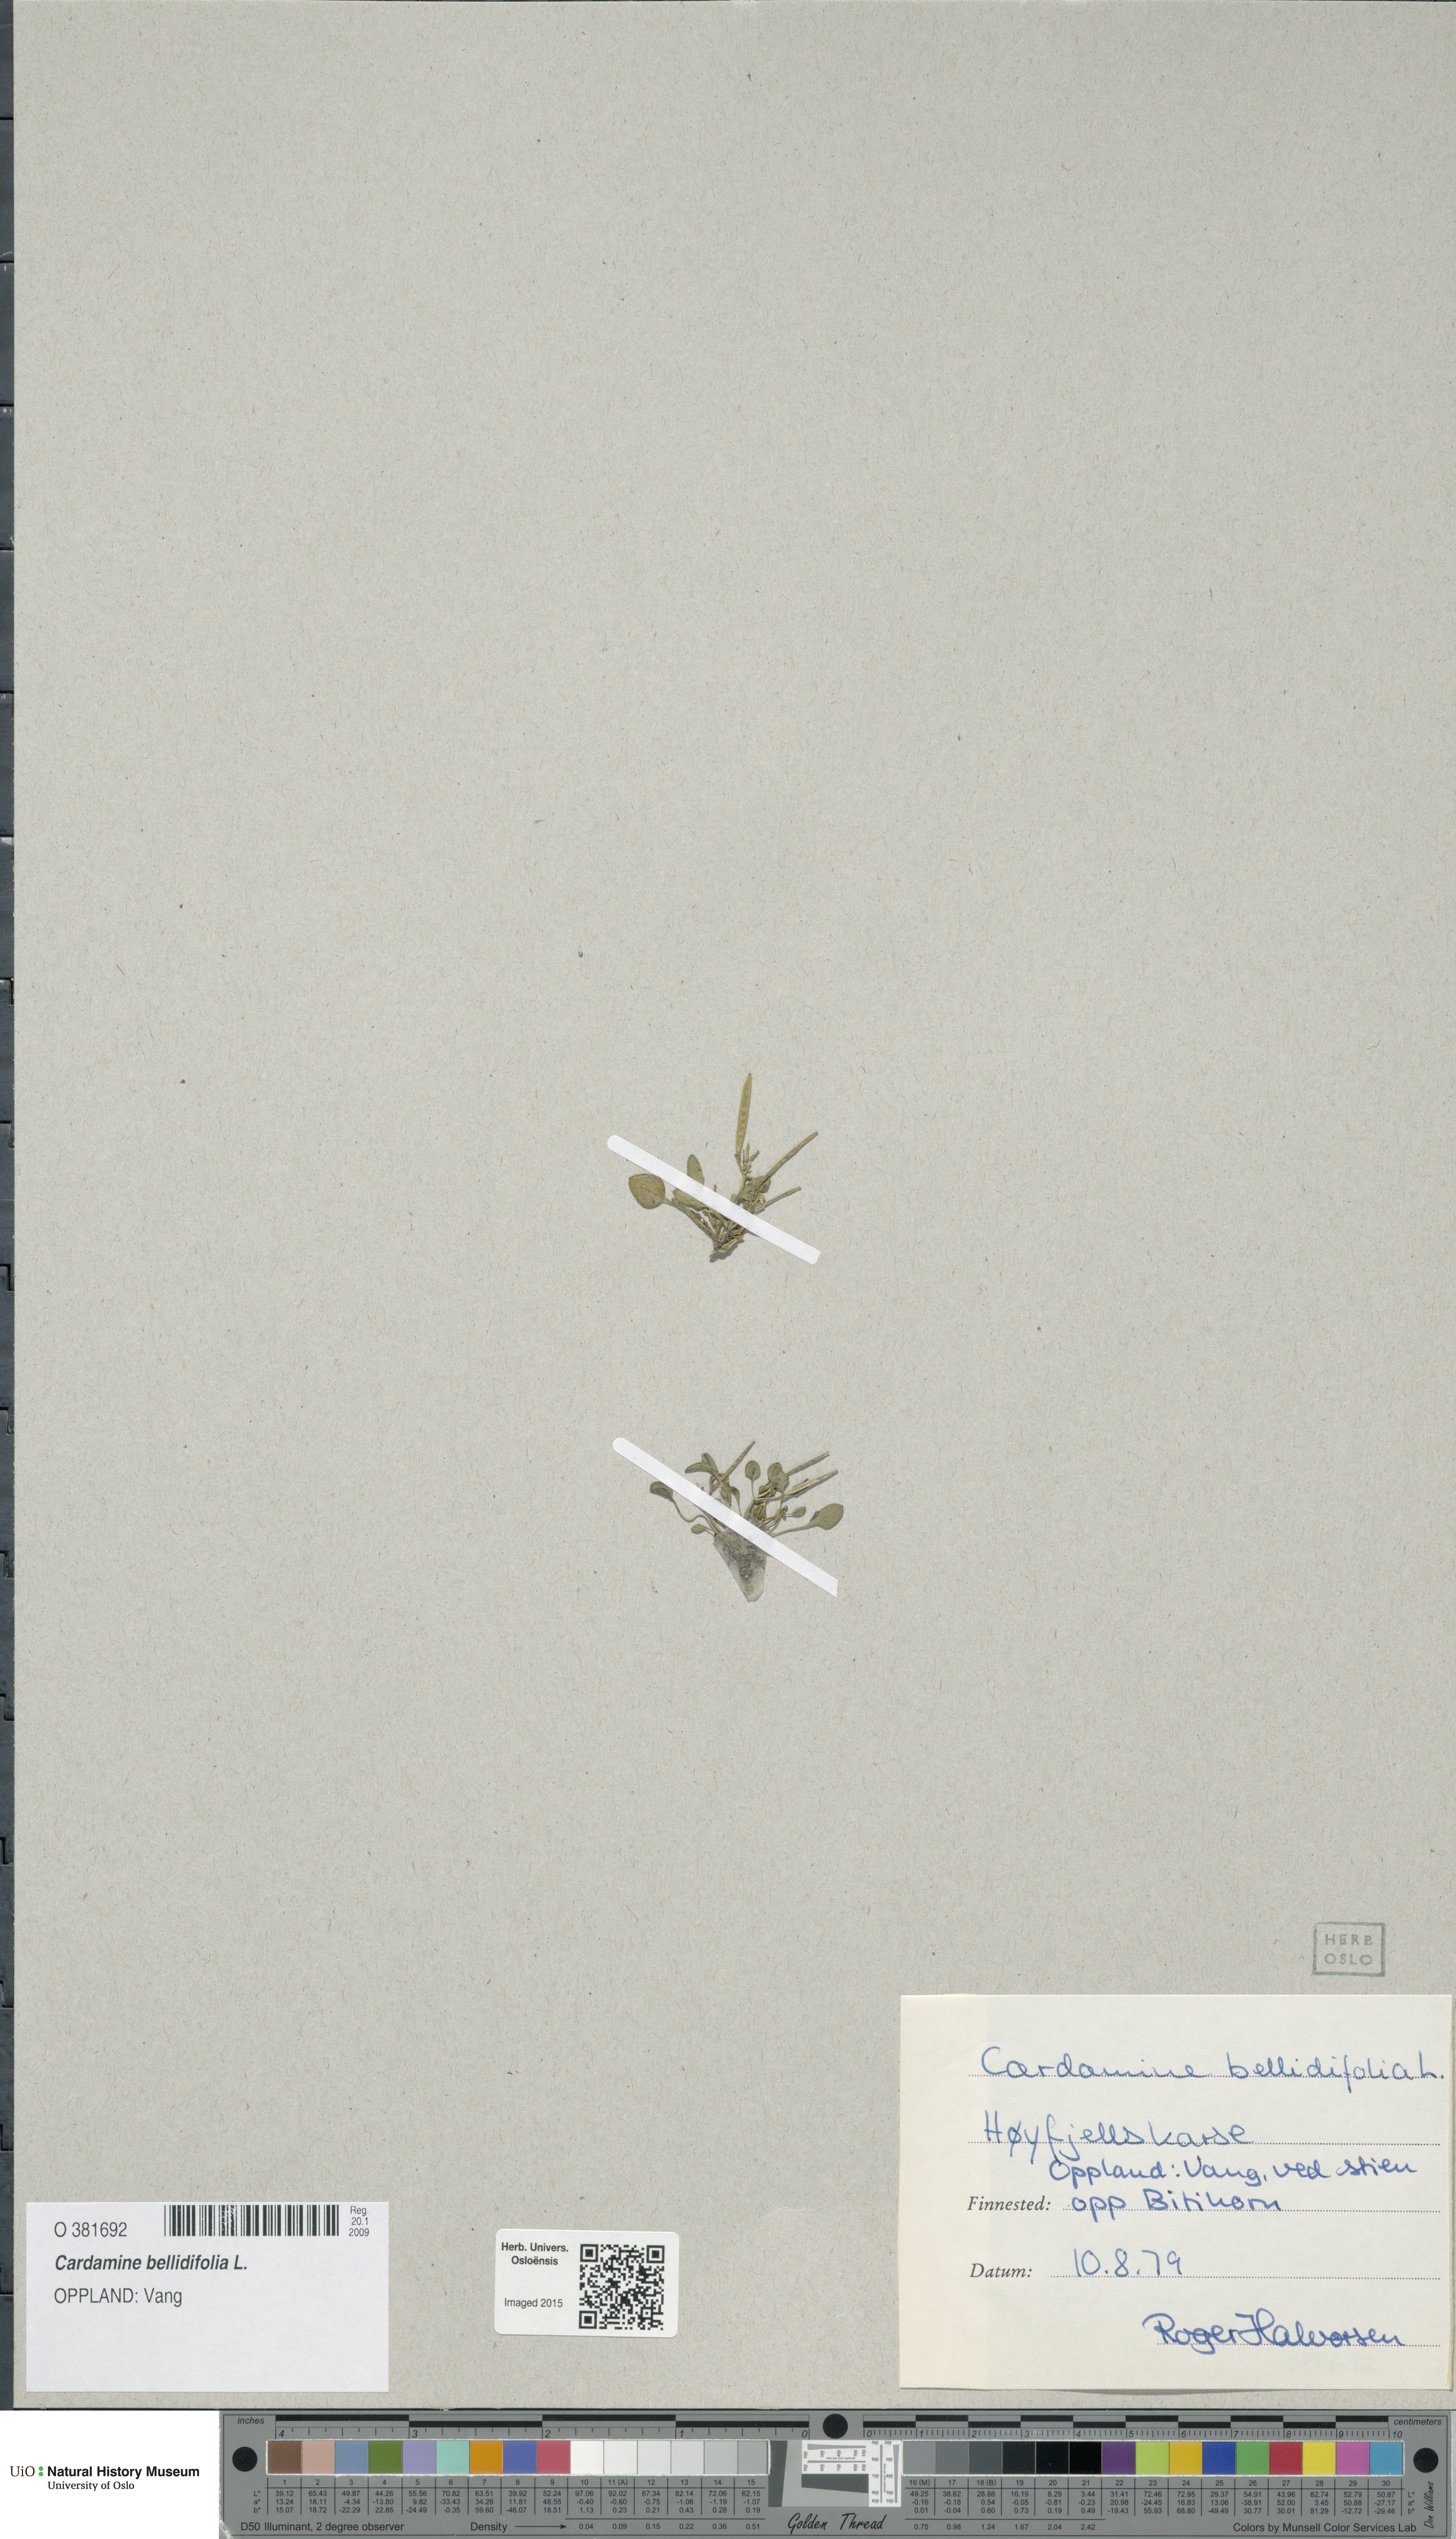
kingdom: Plantae
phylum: Tracheophyta
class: Magnoliopsida
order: Brassicales
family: Brassicaceae
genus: Cardamine
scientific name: Cardamine bellidifolia
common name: Alpine bittercress
